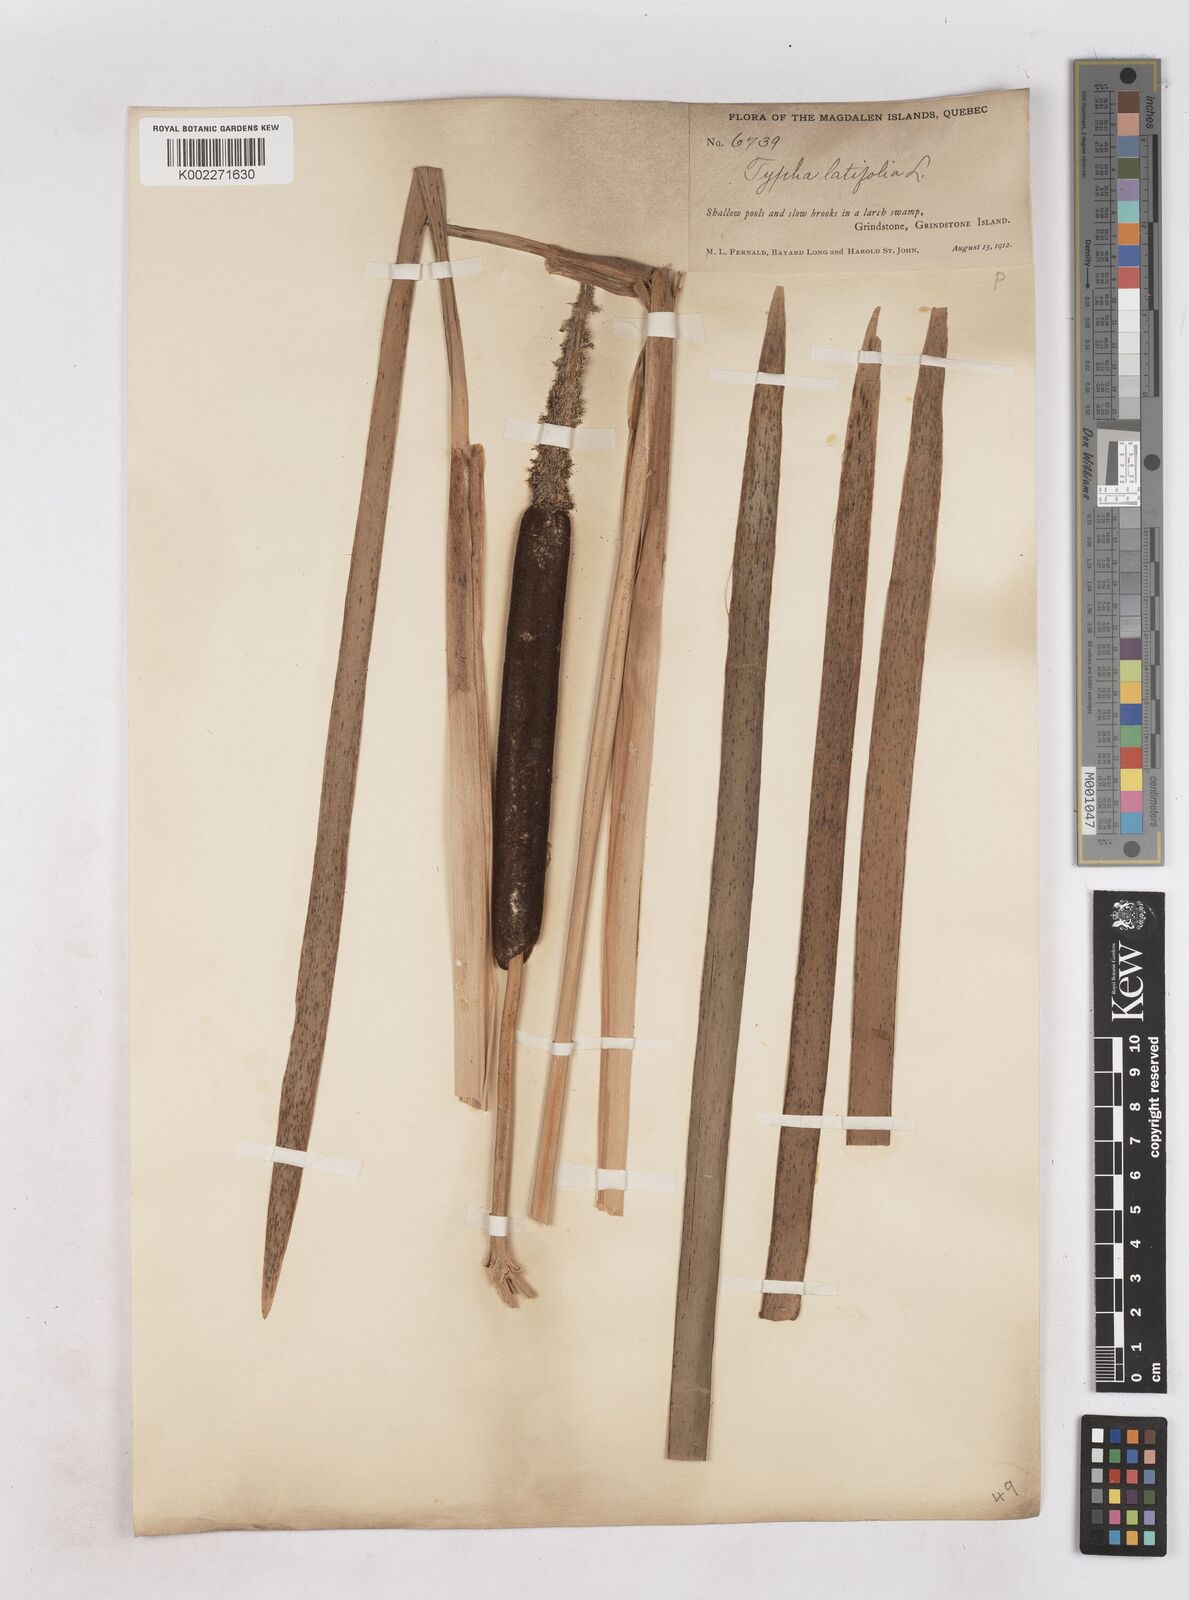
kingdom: Plantae
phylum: Tracheophyta
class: Liliopsida
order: Poales
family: Typhaceae
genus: Typha
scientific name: Typha latifolia
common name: Broadleaf cattail
